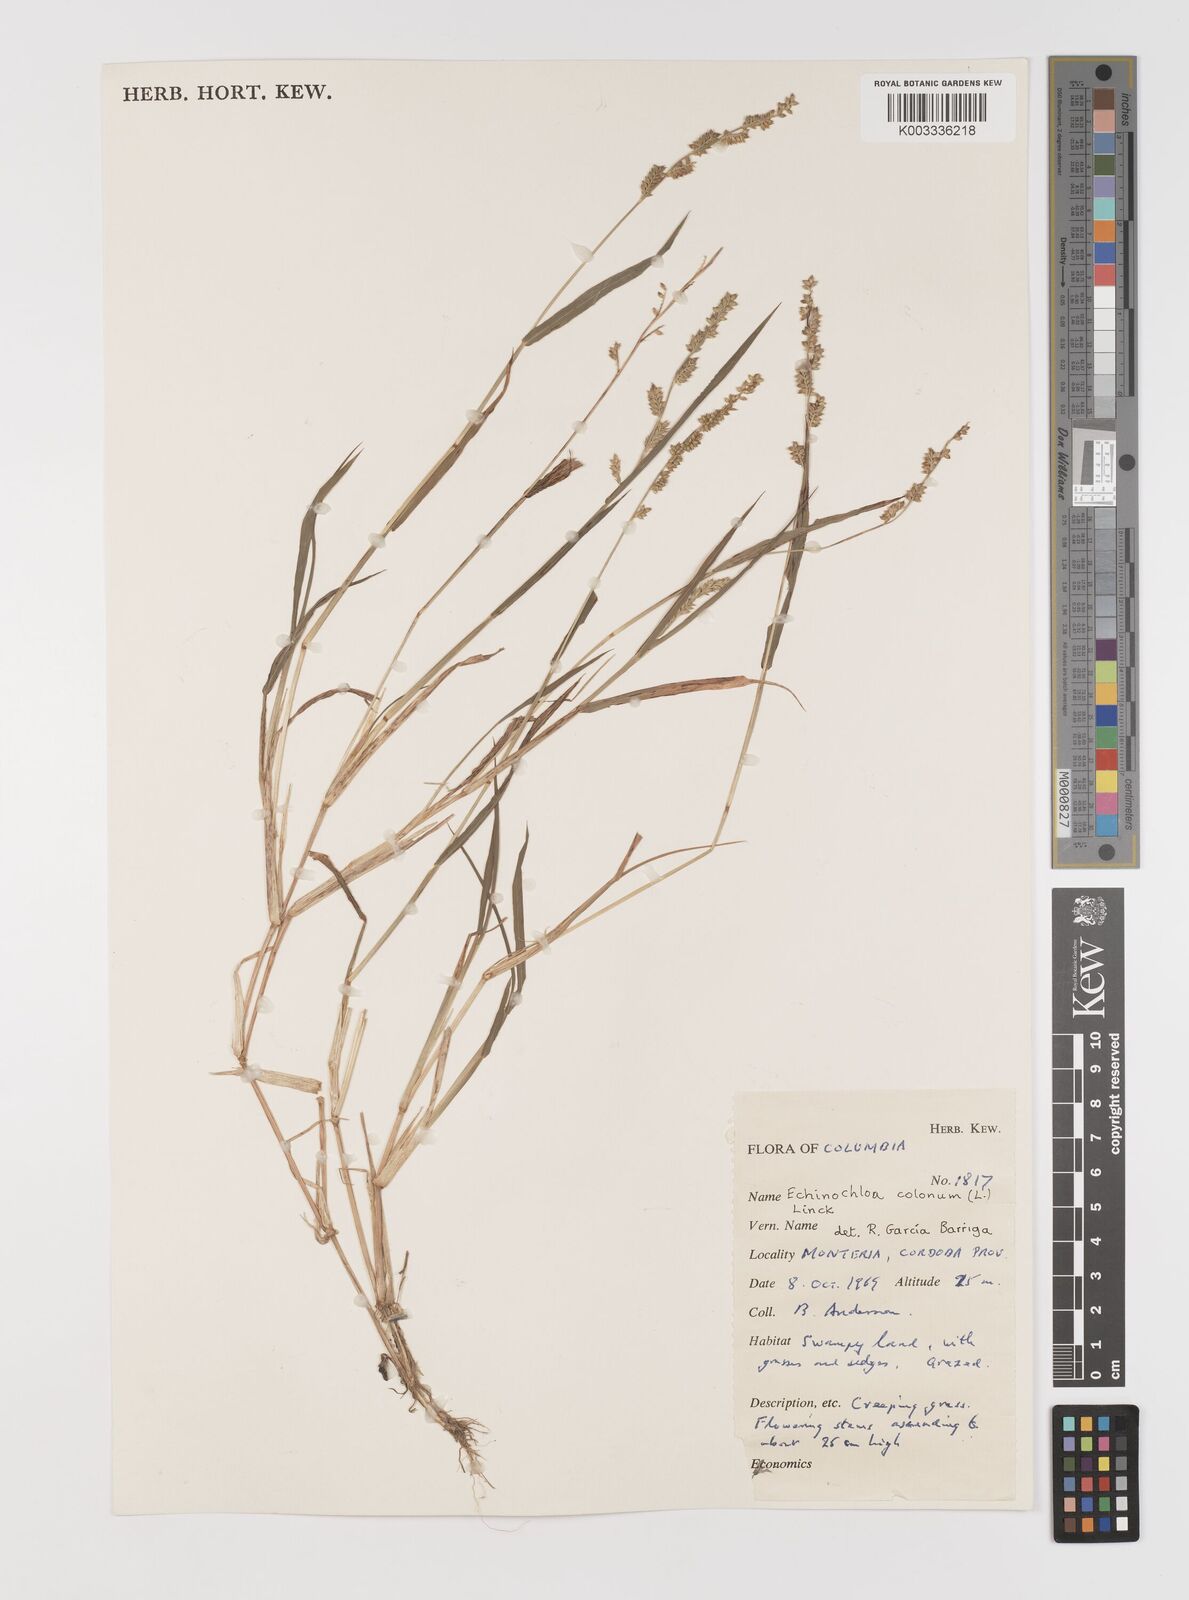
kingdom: Plantae
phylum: Tracheophyta
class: Liliopsida
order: Poales
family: Poaceae
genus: Echinochloa
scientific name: Echinochloa colonum
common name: Jungle rice
